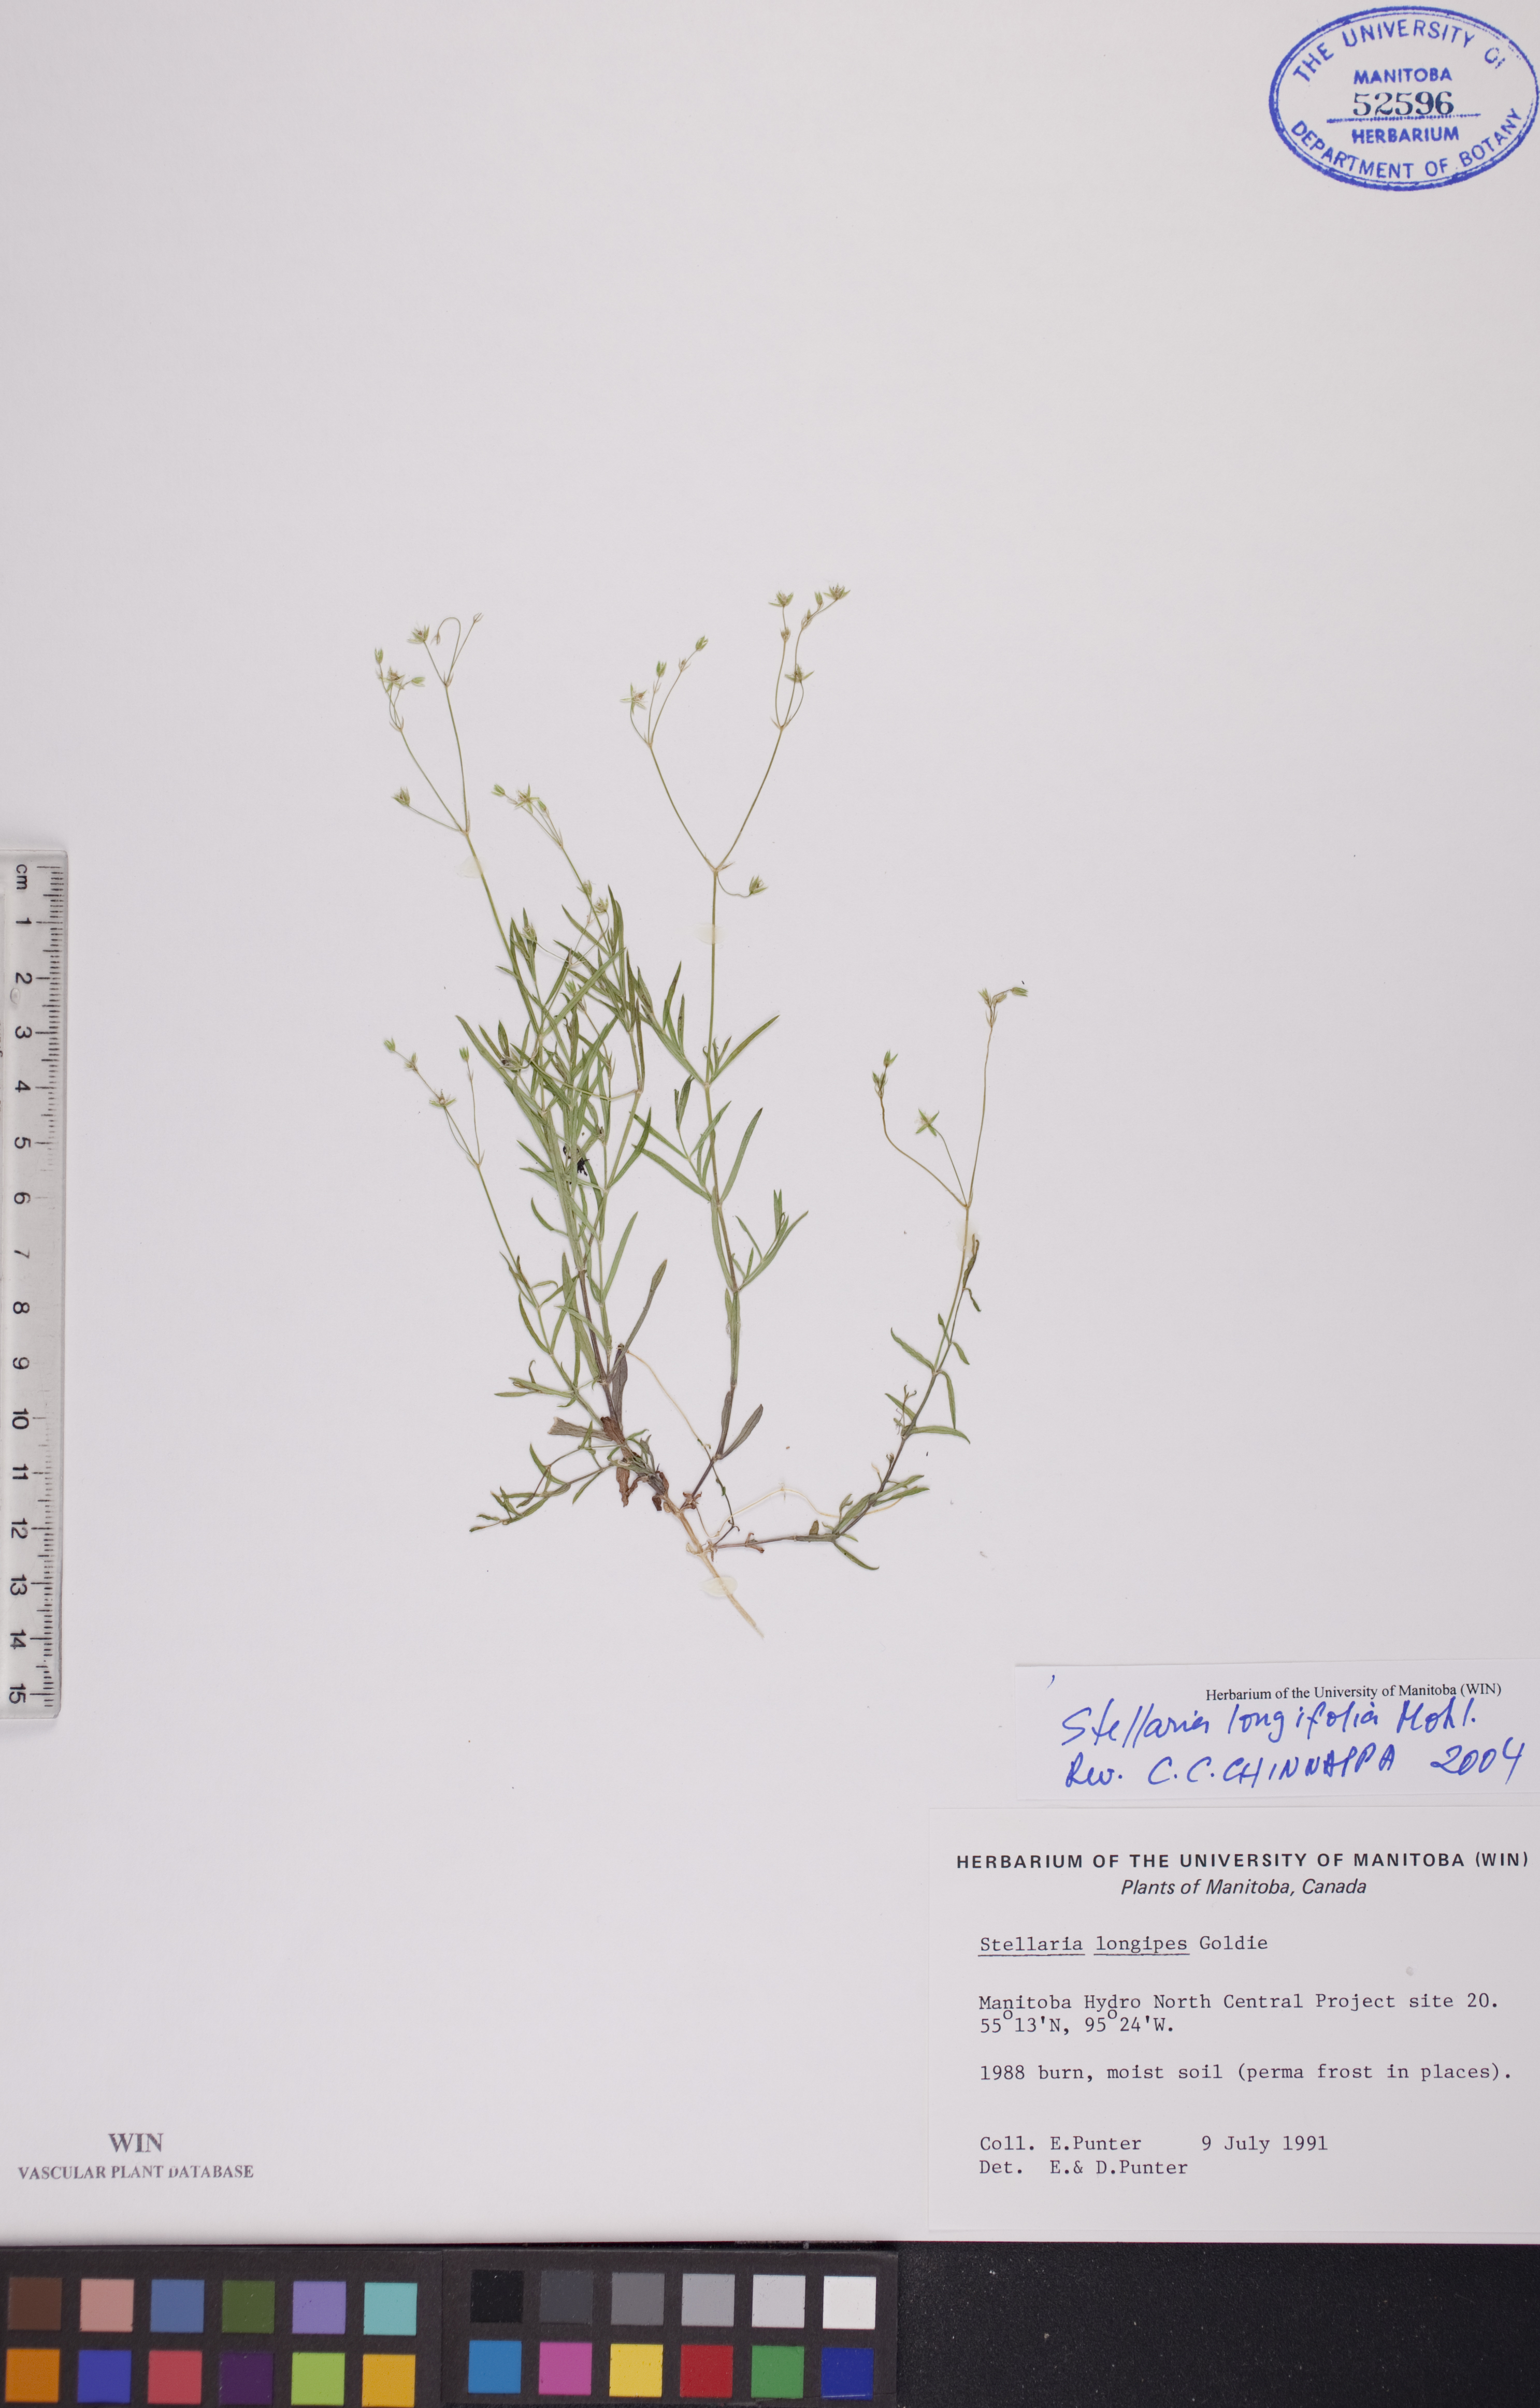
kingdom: Plantae
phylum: Tracheophyta
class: Magnoliopsida
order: Caryophyllales
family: Caryophyllaceae
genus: Stellaria
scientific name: Stellaria longifolia
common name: Long-leaved chickweed
